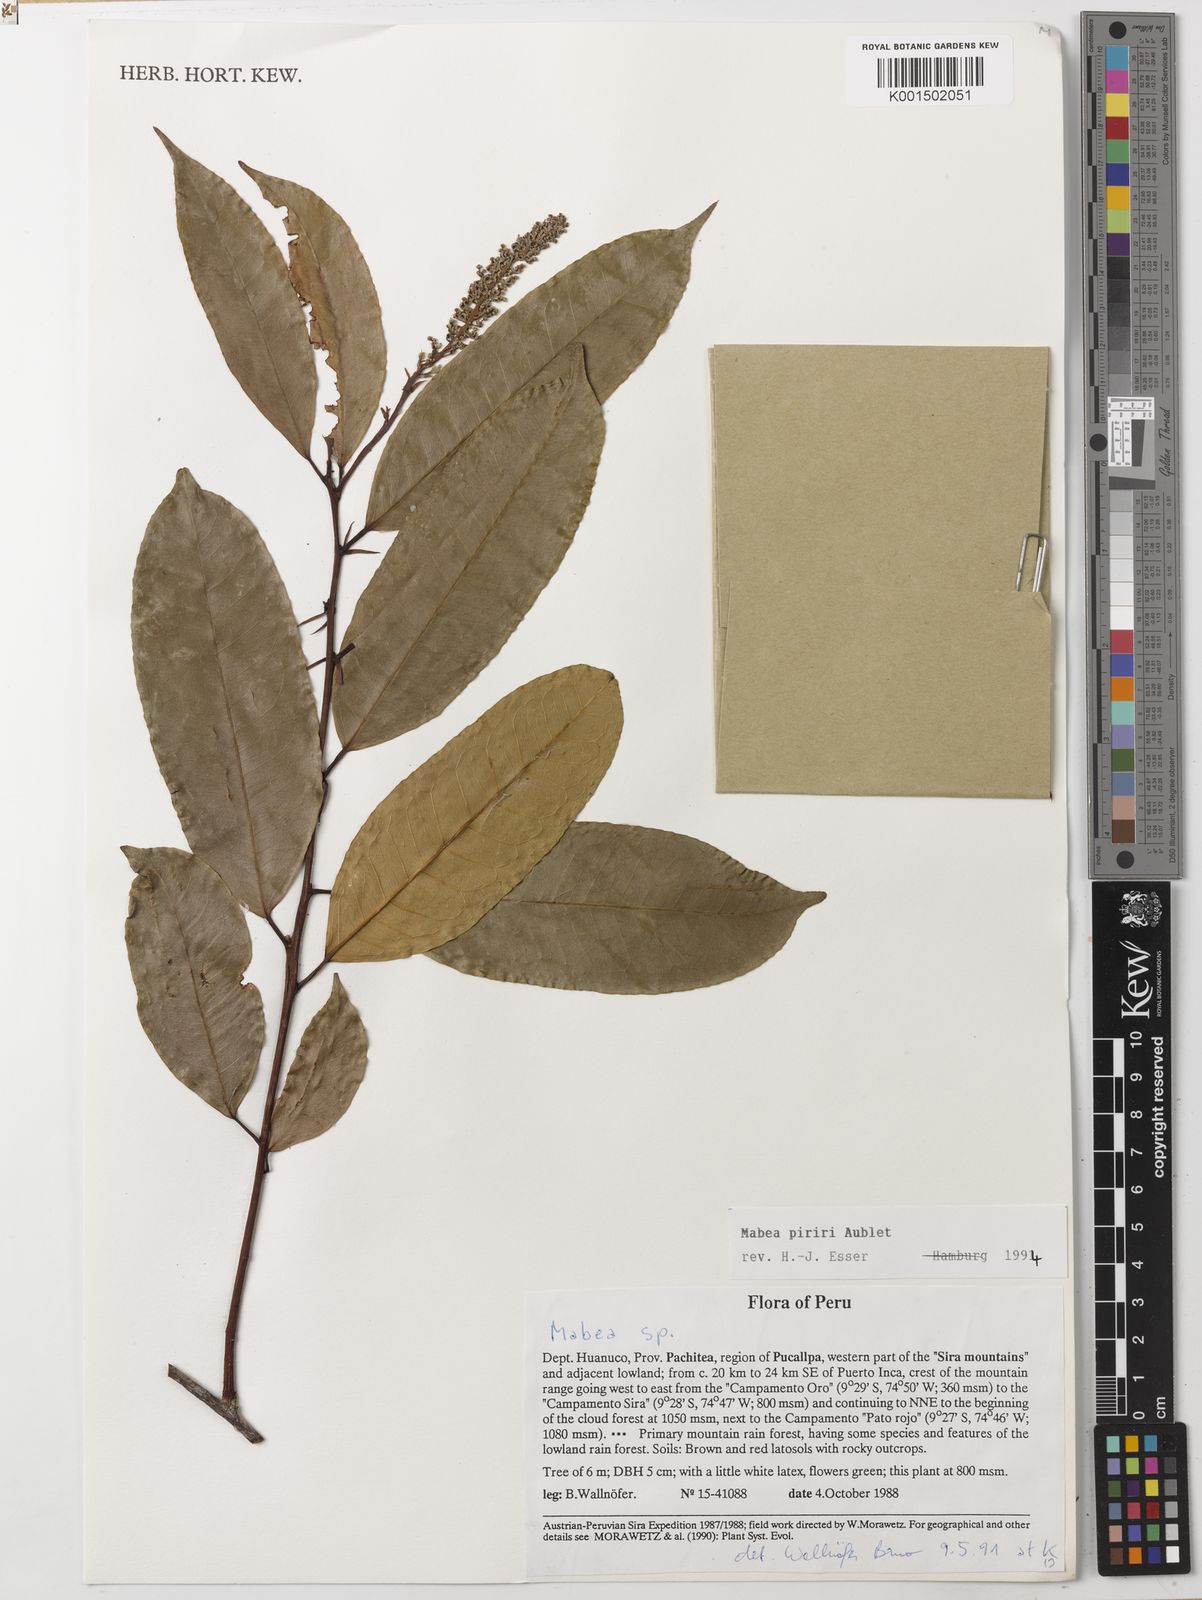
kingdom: Plantae
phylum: Tracheophyta
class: Magnoliopsida
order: Malpighiales
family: Euphorbiaceae
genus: Mabea
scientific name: Mabea piriri
